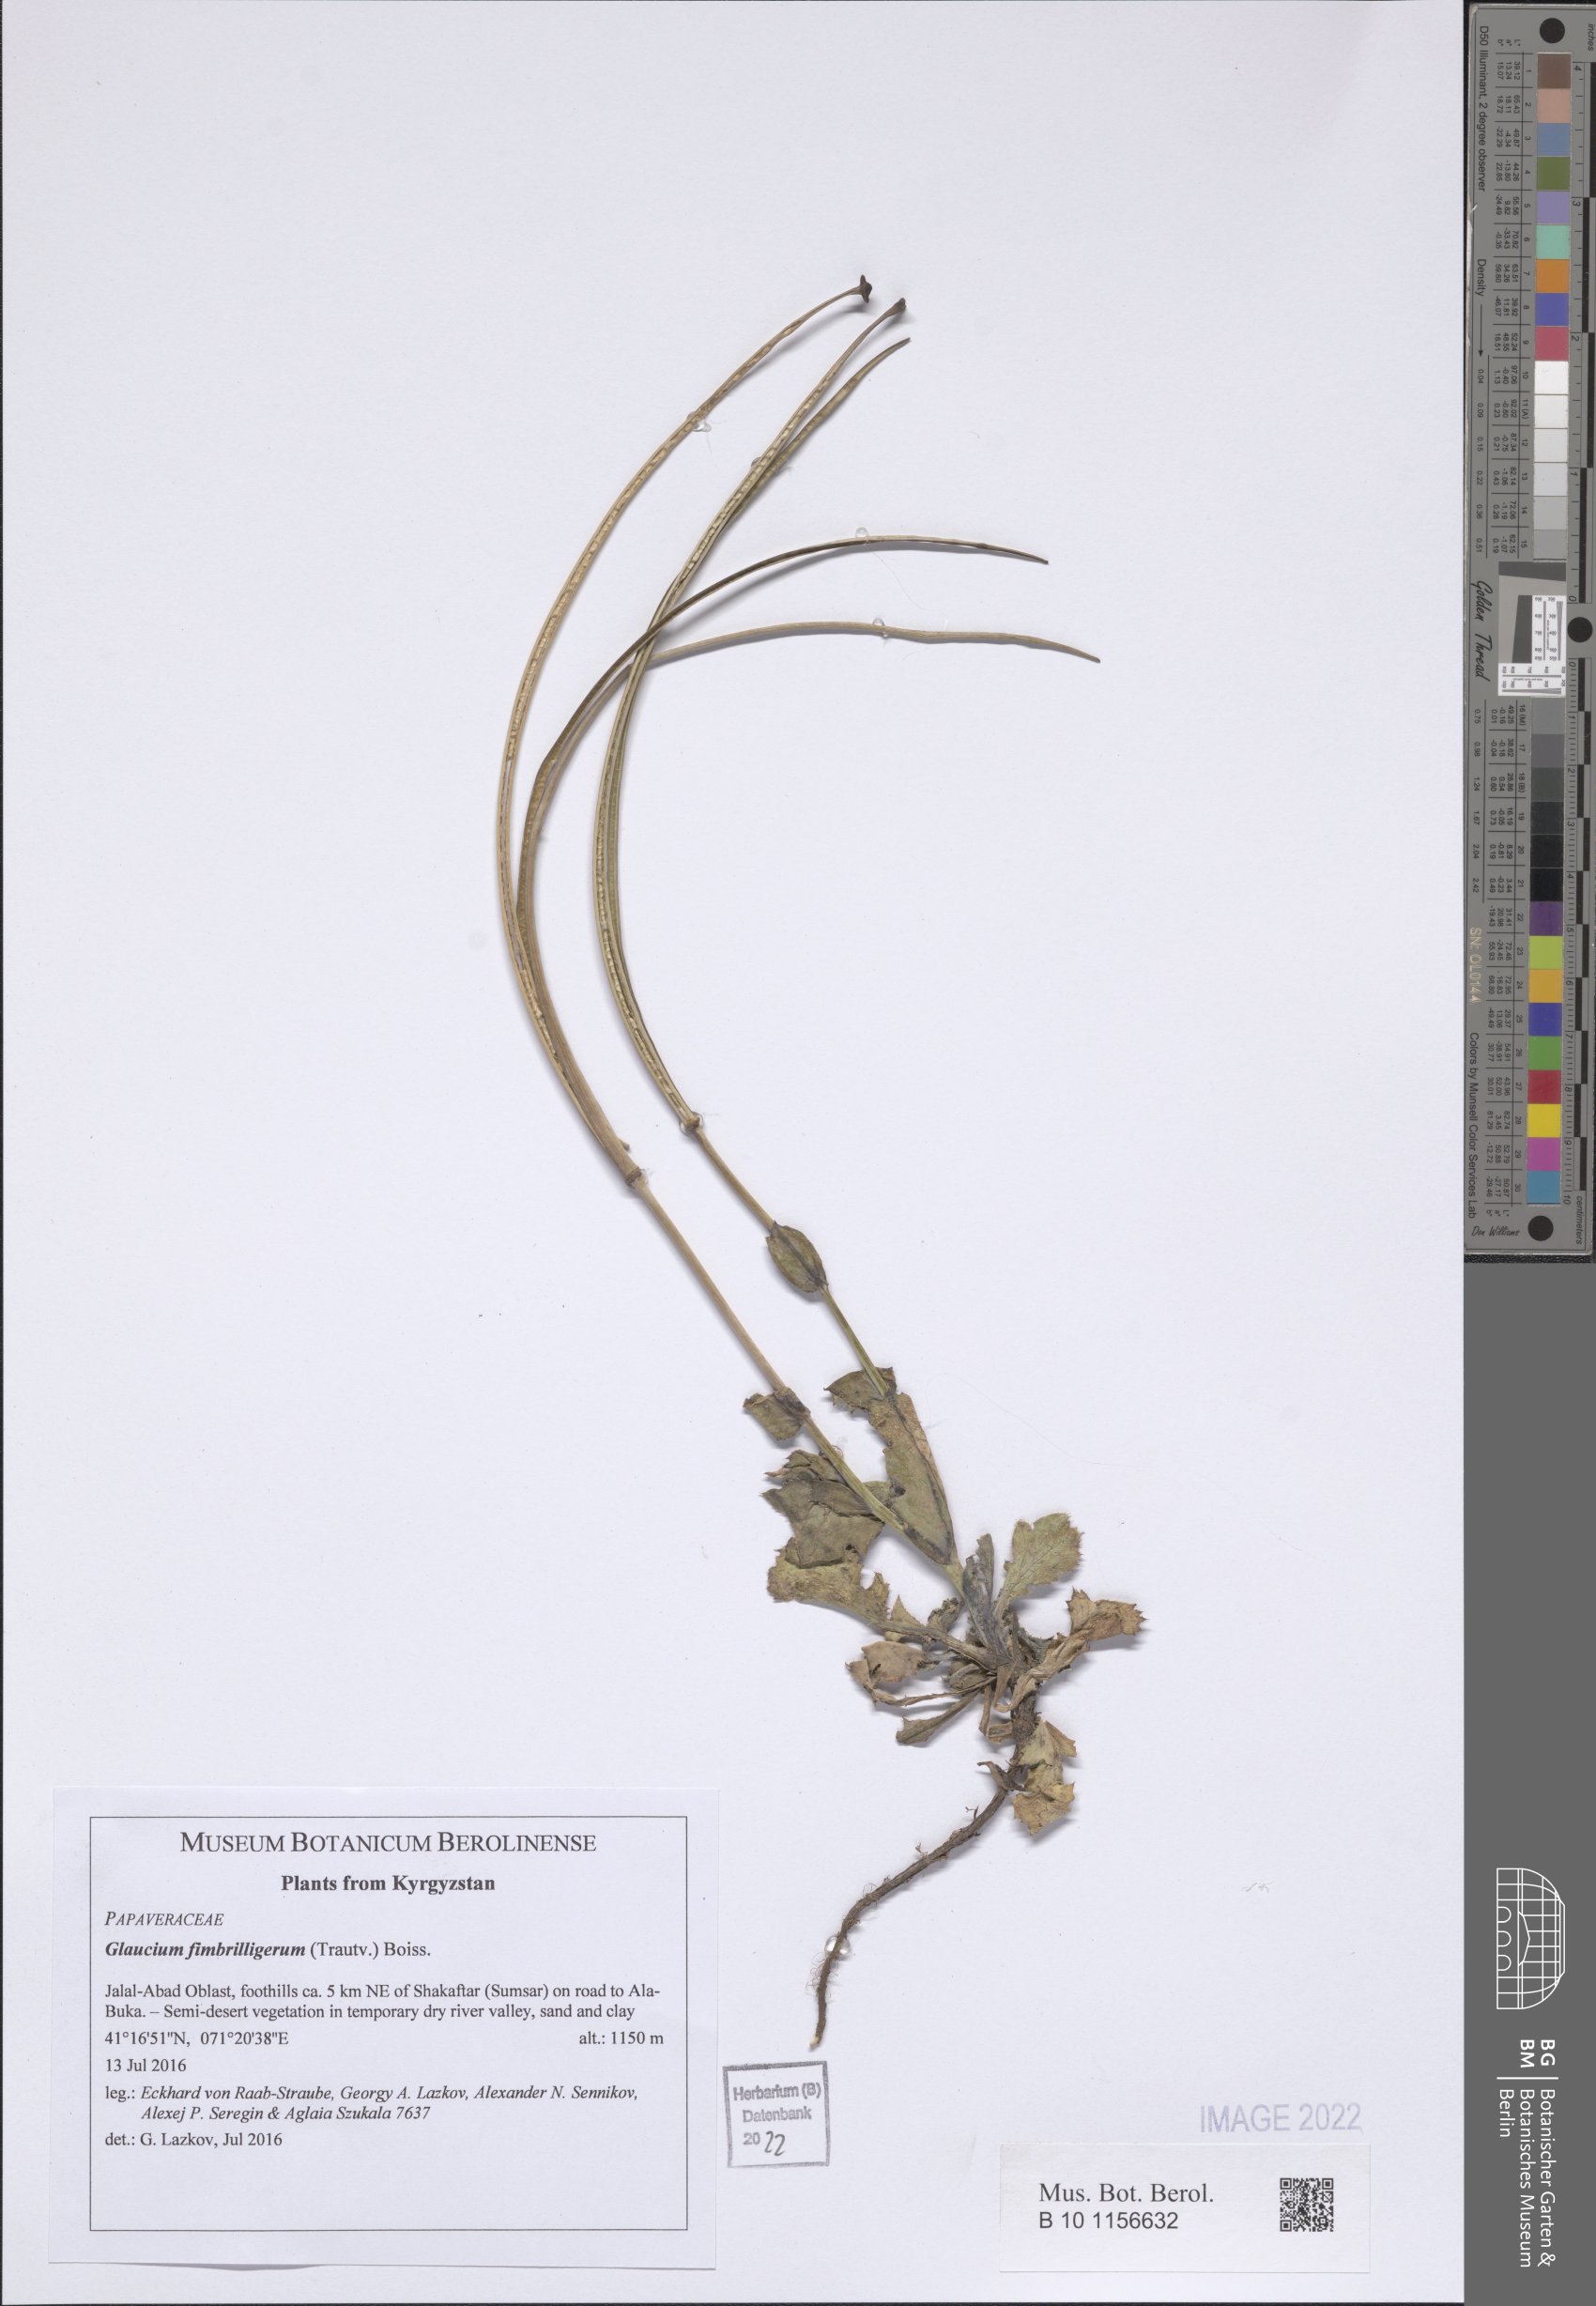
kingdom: Plantae
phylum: Tracheophyta
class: Magnoliopsida
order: Ranunculales
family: Papaveraceae
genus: Glaucium
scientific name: Glaucium fimbrilligerum
